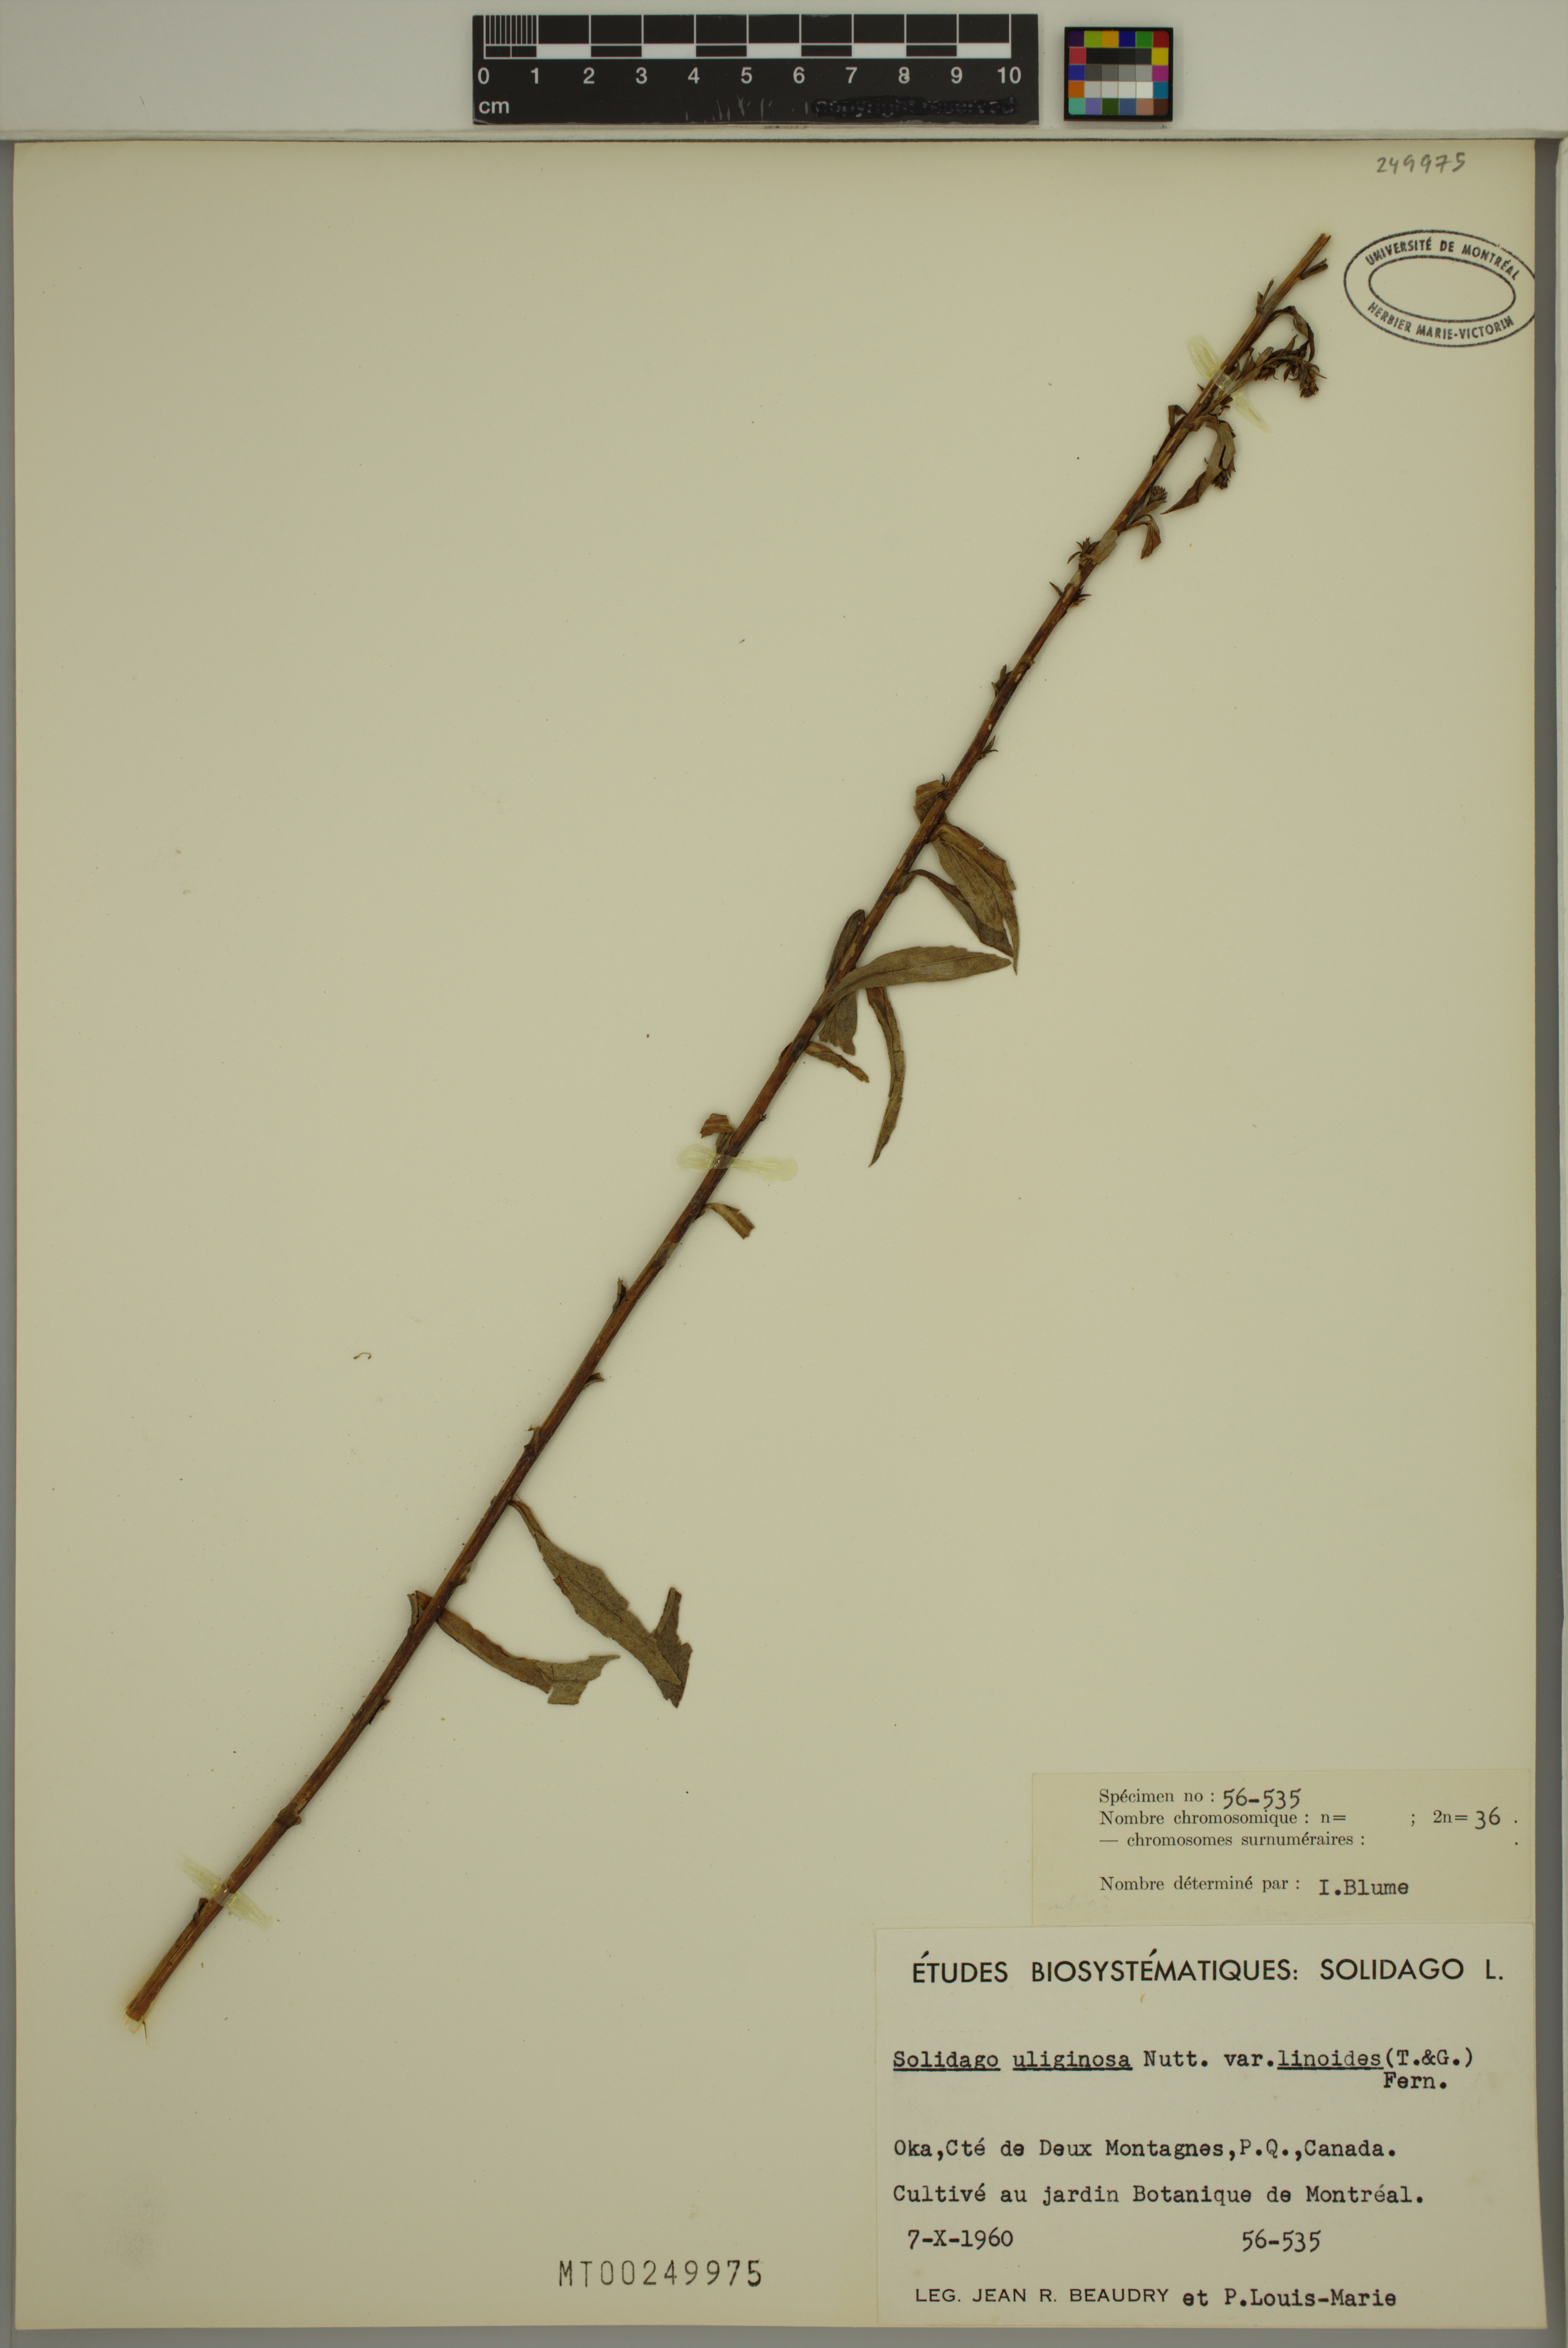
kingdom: Plantae
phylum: Tracheophyta
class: Magnoliopsida
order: Asterales
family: Asteraceae
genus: Solidago
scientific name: Solidago uliginosa
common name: Bog goldenrod
